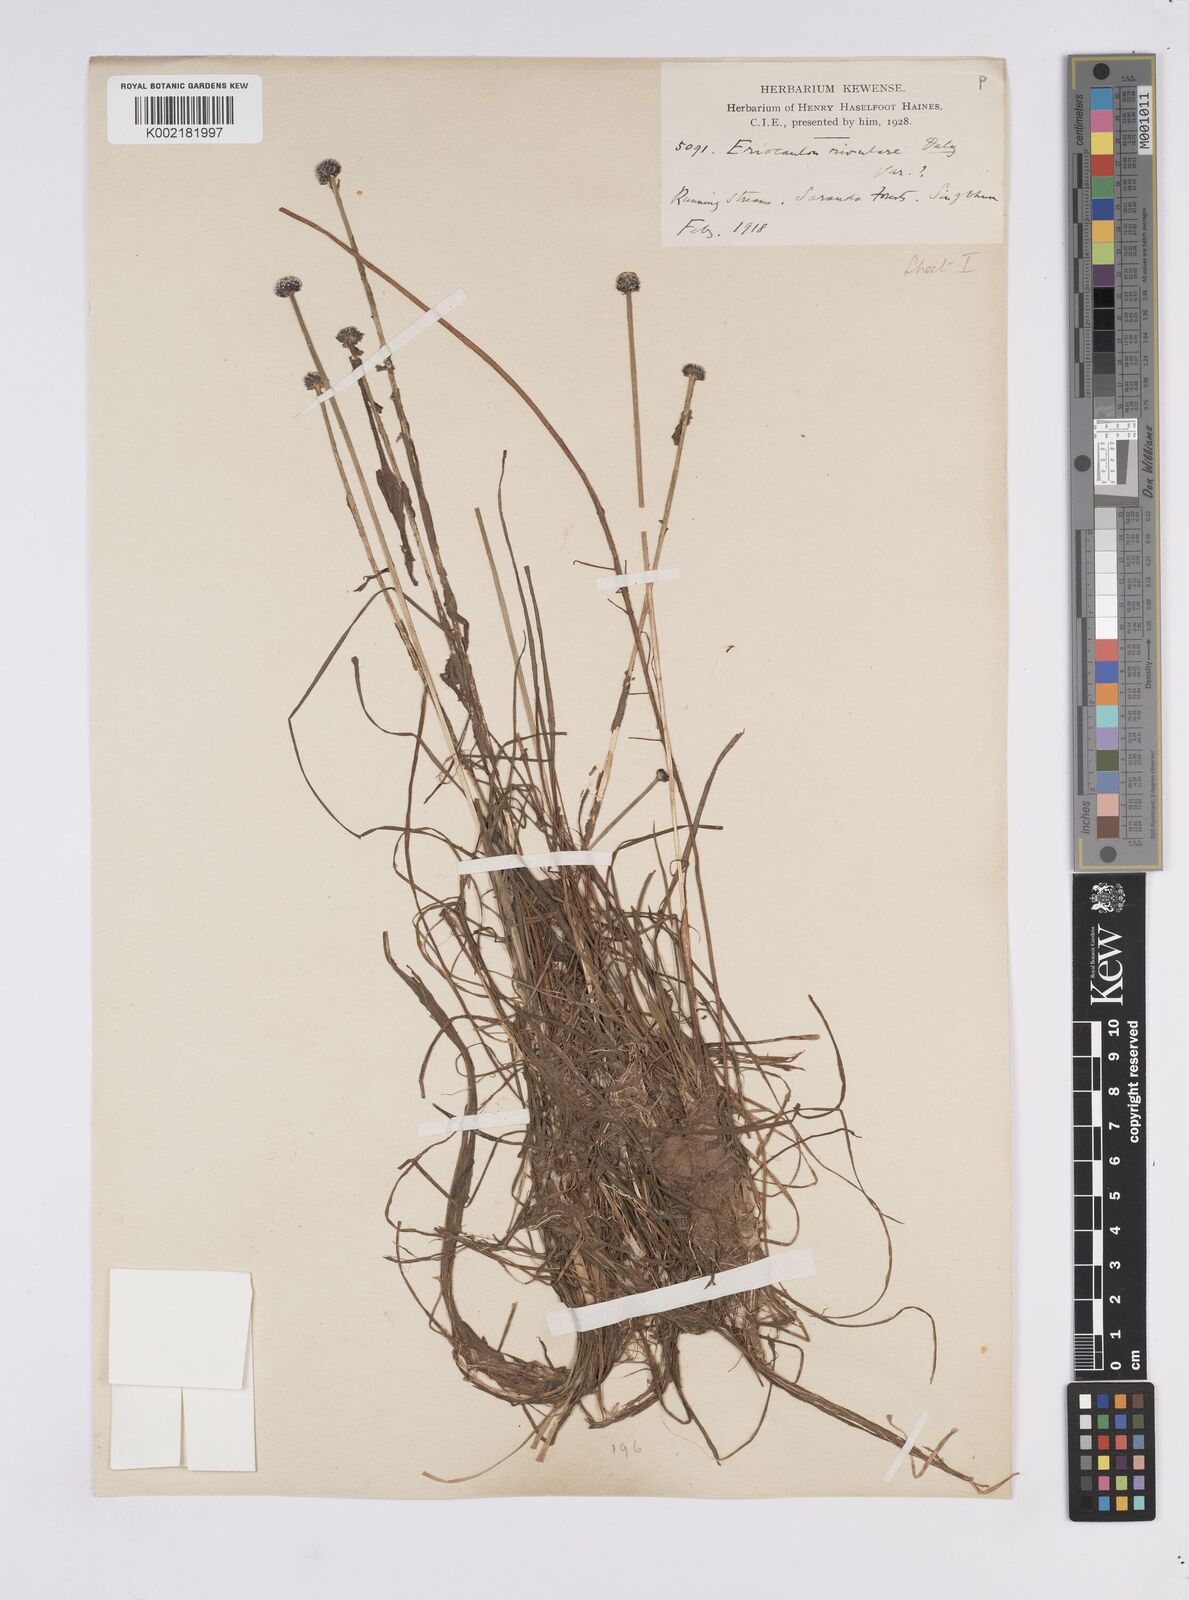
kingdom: Plantae
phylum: Tracheophyta
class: Liliopsida
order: Poales
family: Eriocaulaceae
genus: Eriocaulon
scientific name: Eriocaulon fluviatile
